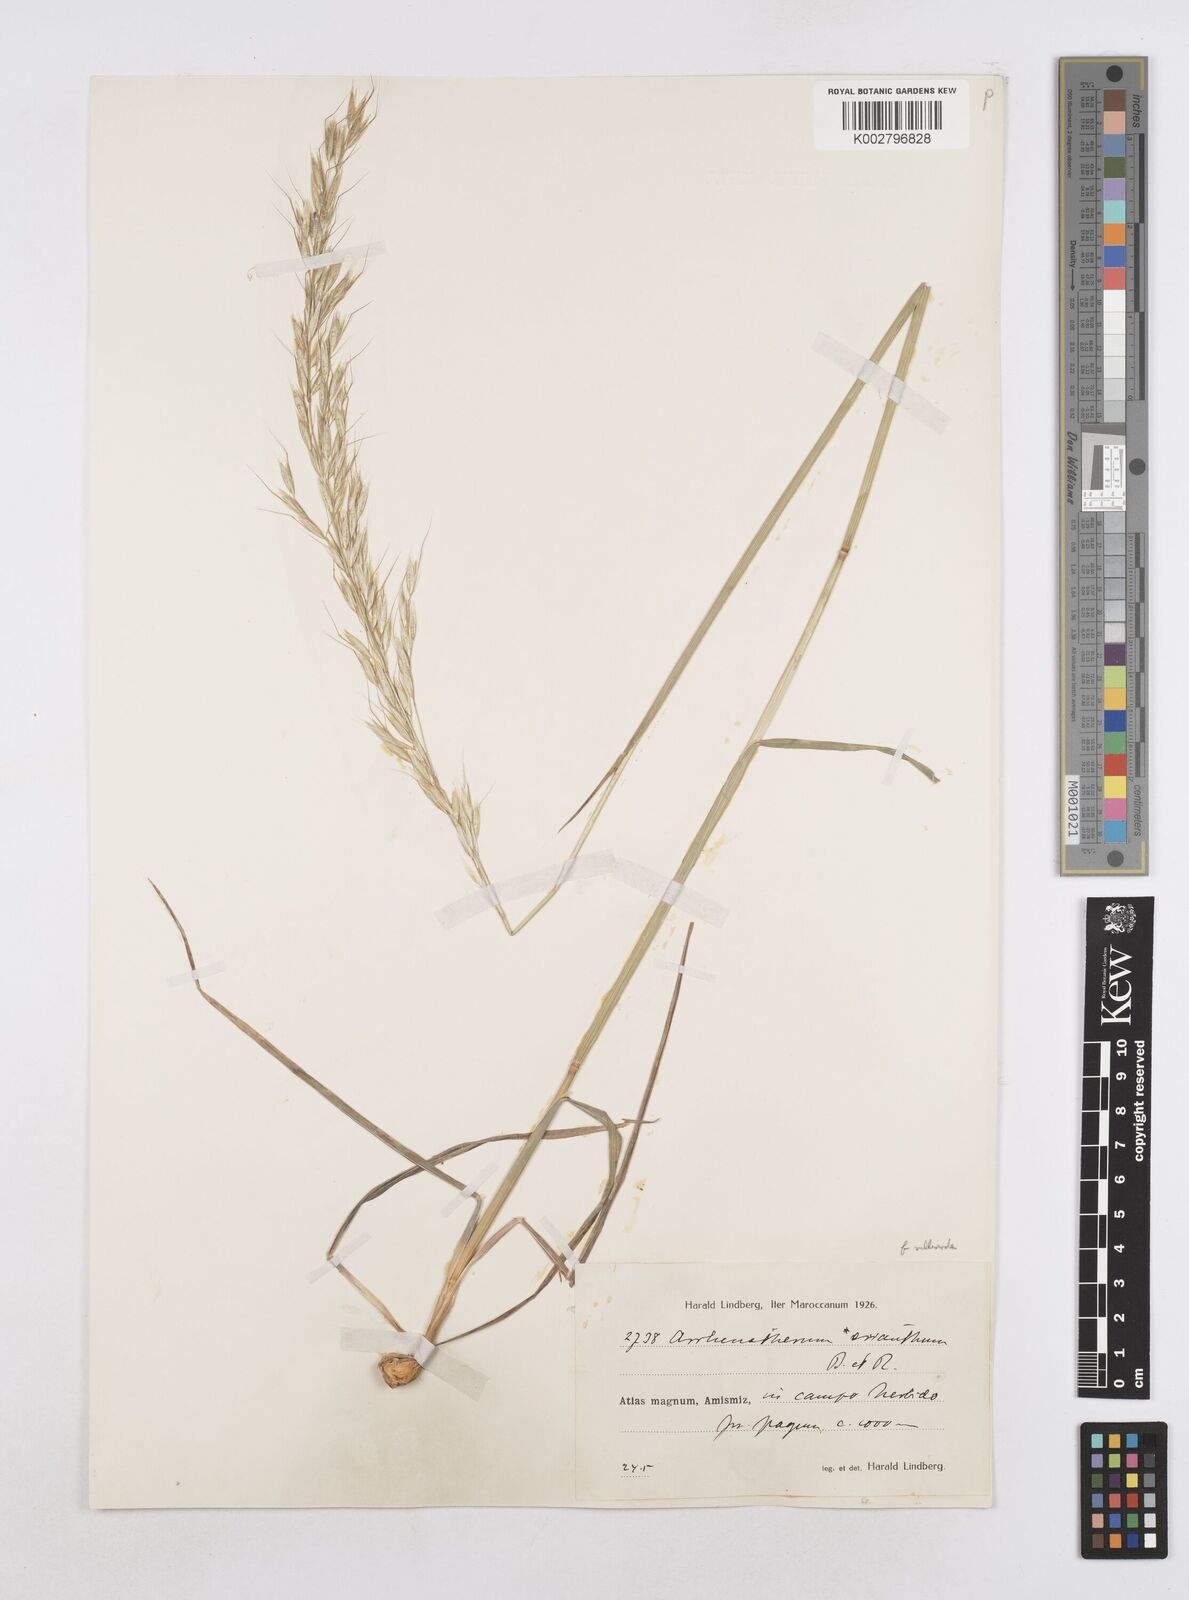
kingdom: Plantae
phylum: Tracheophyta
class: Liliopsida
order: Poales
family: Poaceae
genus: Arrhenatherum
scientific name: Arrhenatherum
